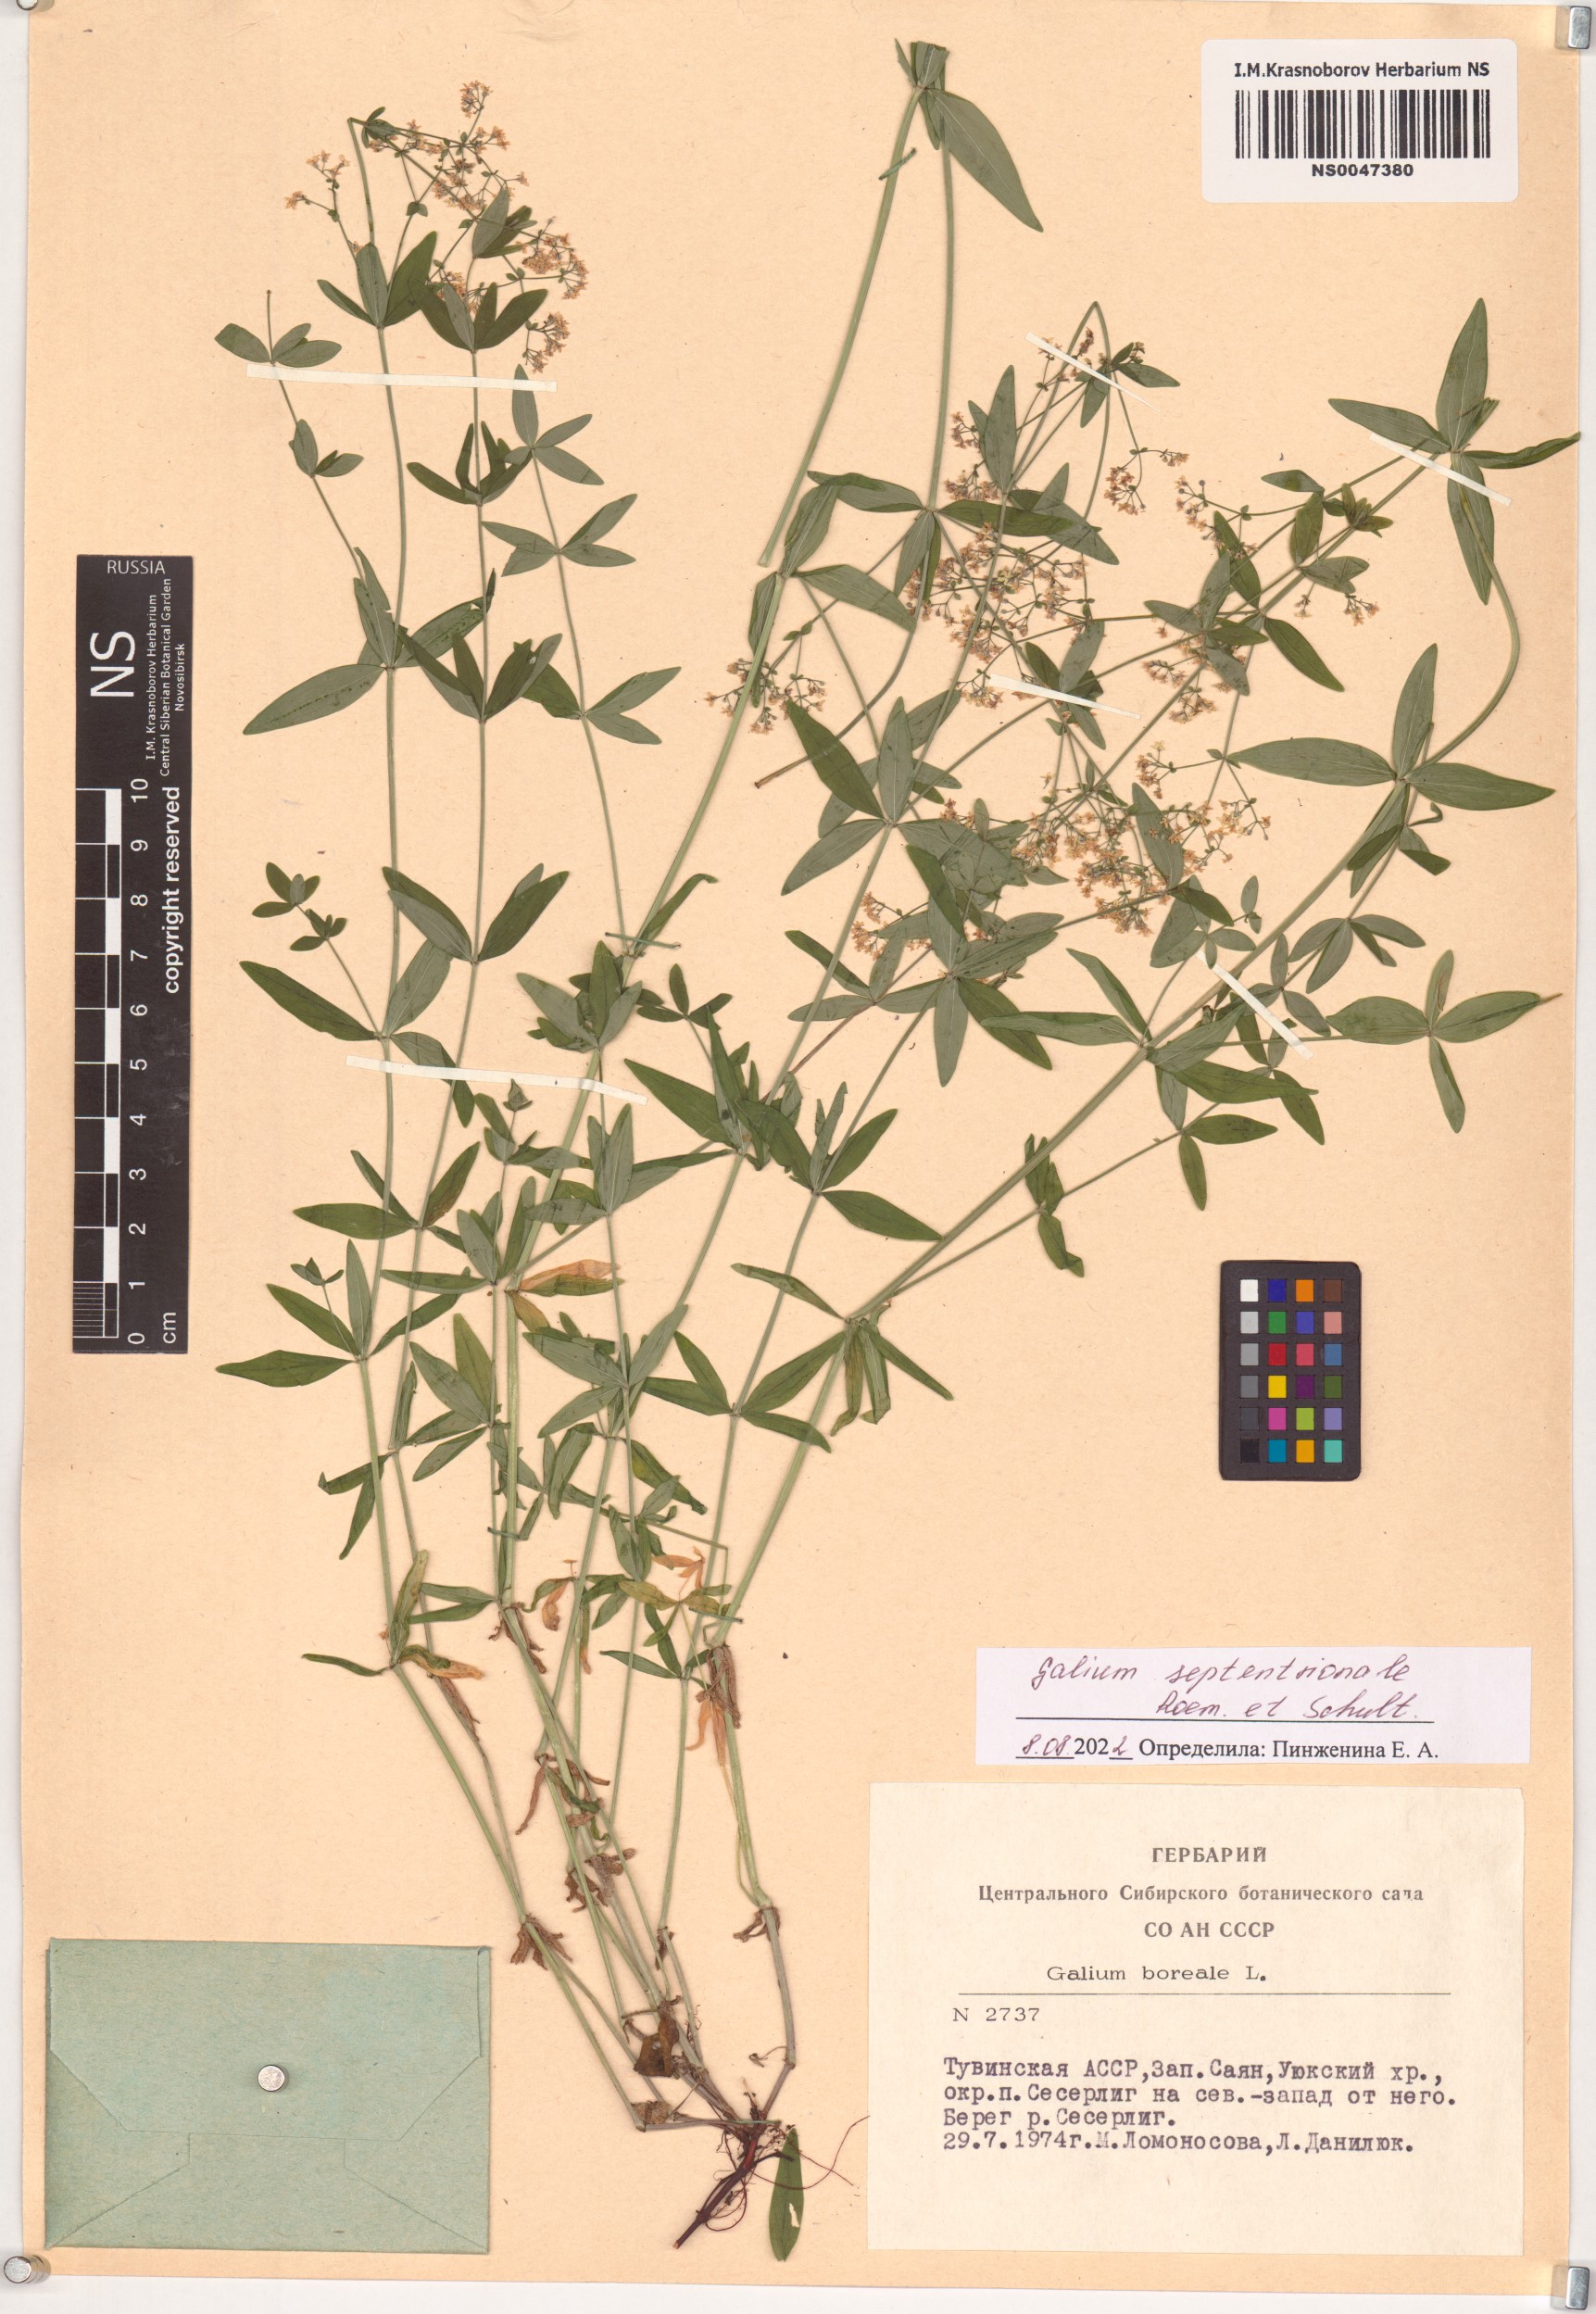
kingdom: Plantae
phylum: Tracheophyta
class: Magnoliopsida
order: Gentianales
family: Rubiaceae
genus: Galium
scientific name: Galium boreale
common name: Northern bedstraw
